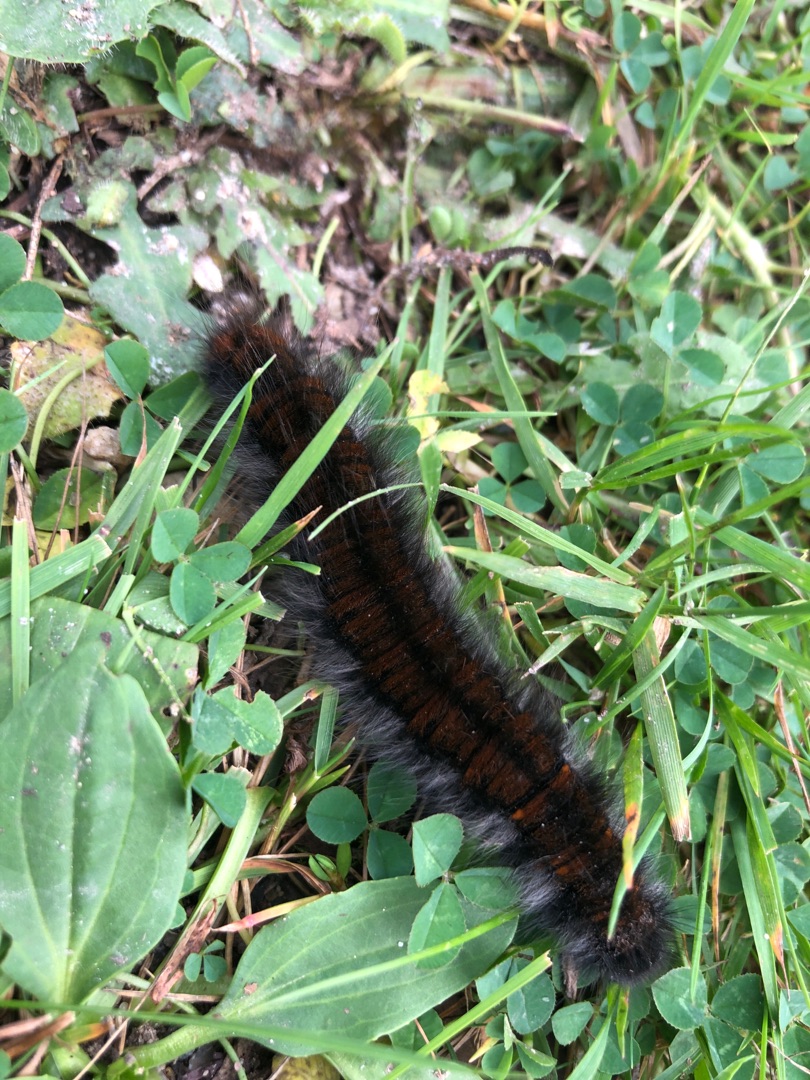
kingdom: Animalia
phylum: Arthropoda
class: Insecta
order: Lepidoptera
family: Lasiocampidae
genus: Macrothylacia
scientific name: Macrothylacia rubi
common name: Brombærspinder
